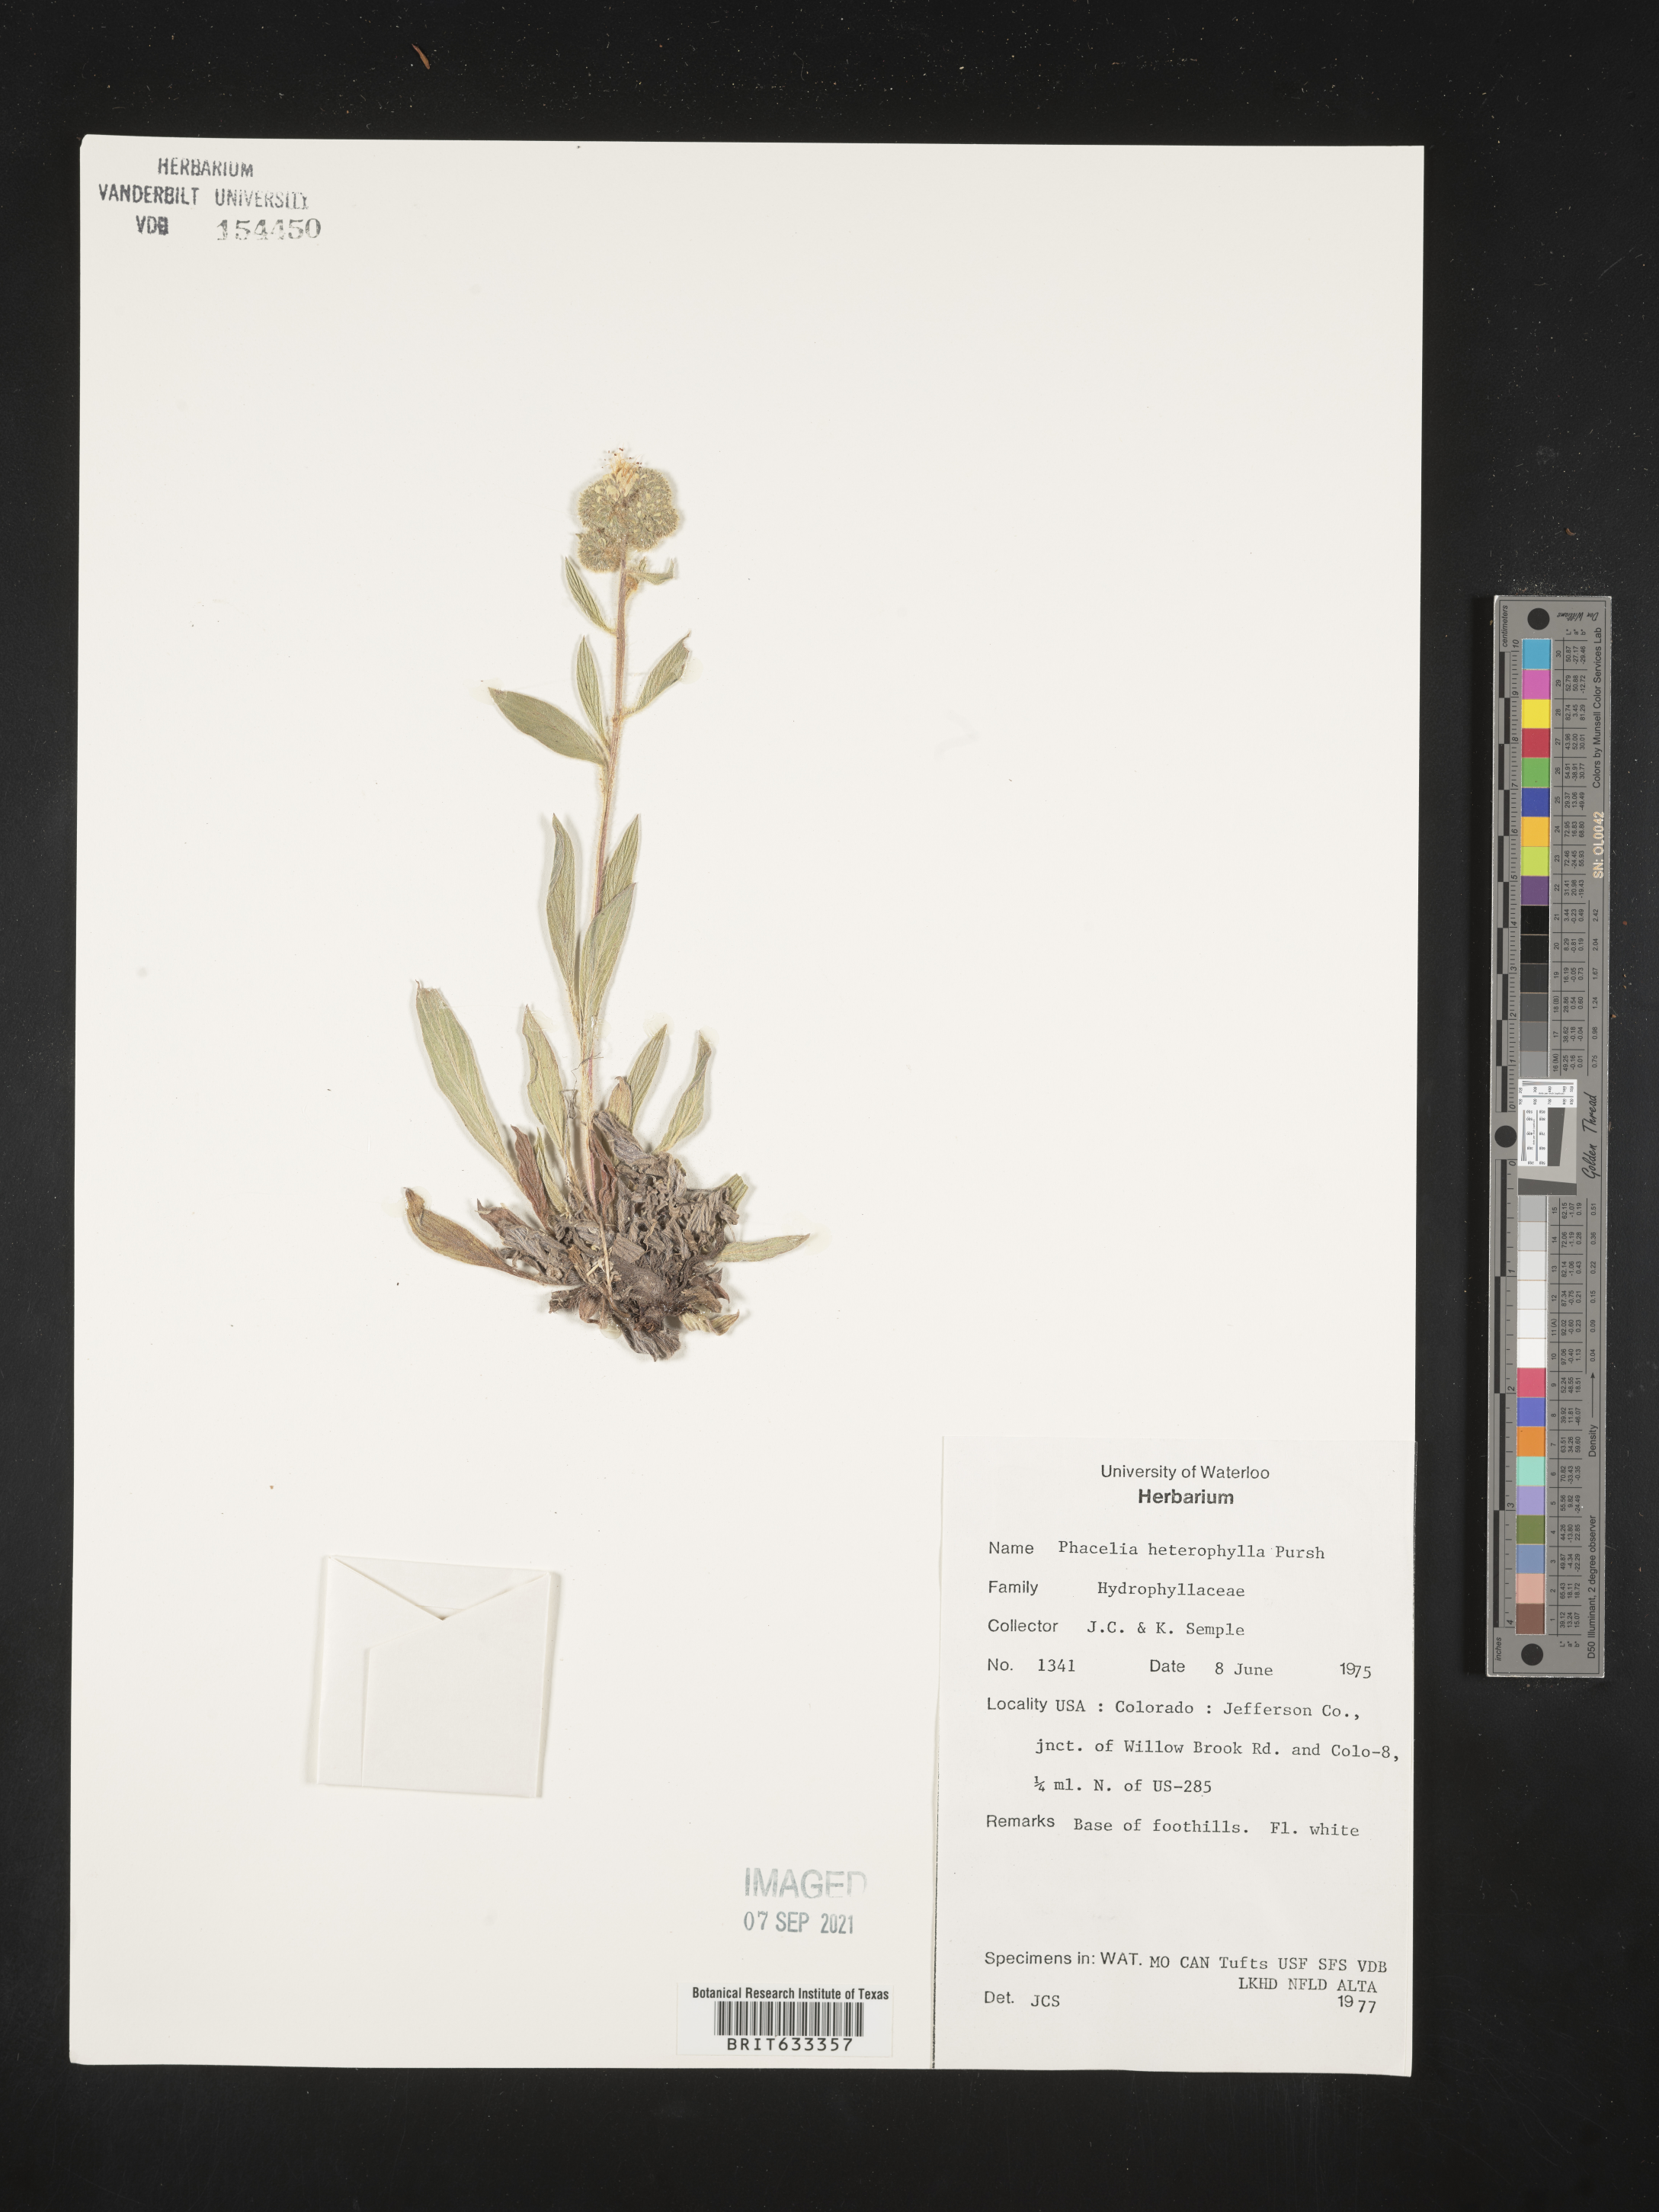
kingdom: Plantae
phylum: Tracheophyta
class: Magnoliopsida
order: Boraginales
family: Hydrophyllaceae
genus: Phacelia
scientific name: Phacelia heterophylla
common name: Variable-leaved phacelia
